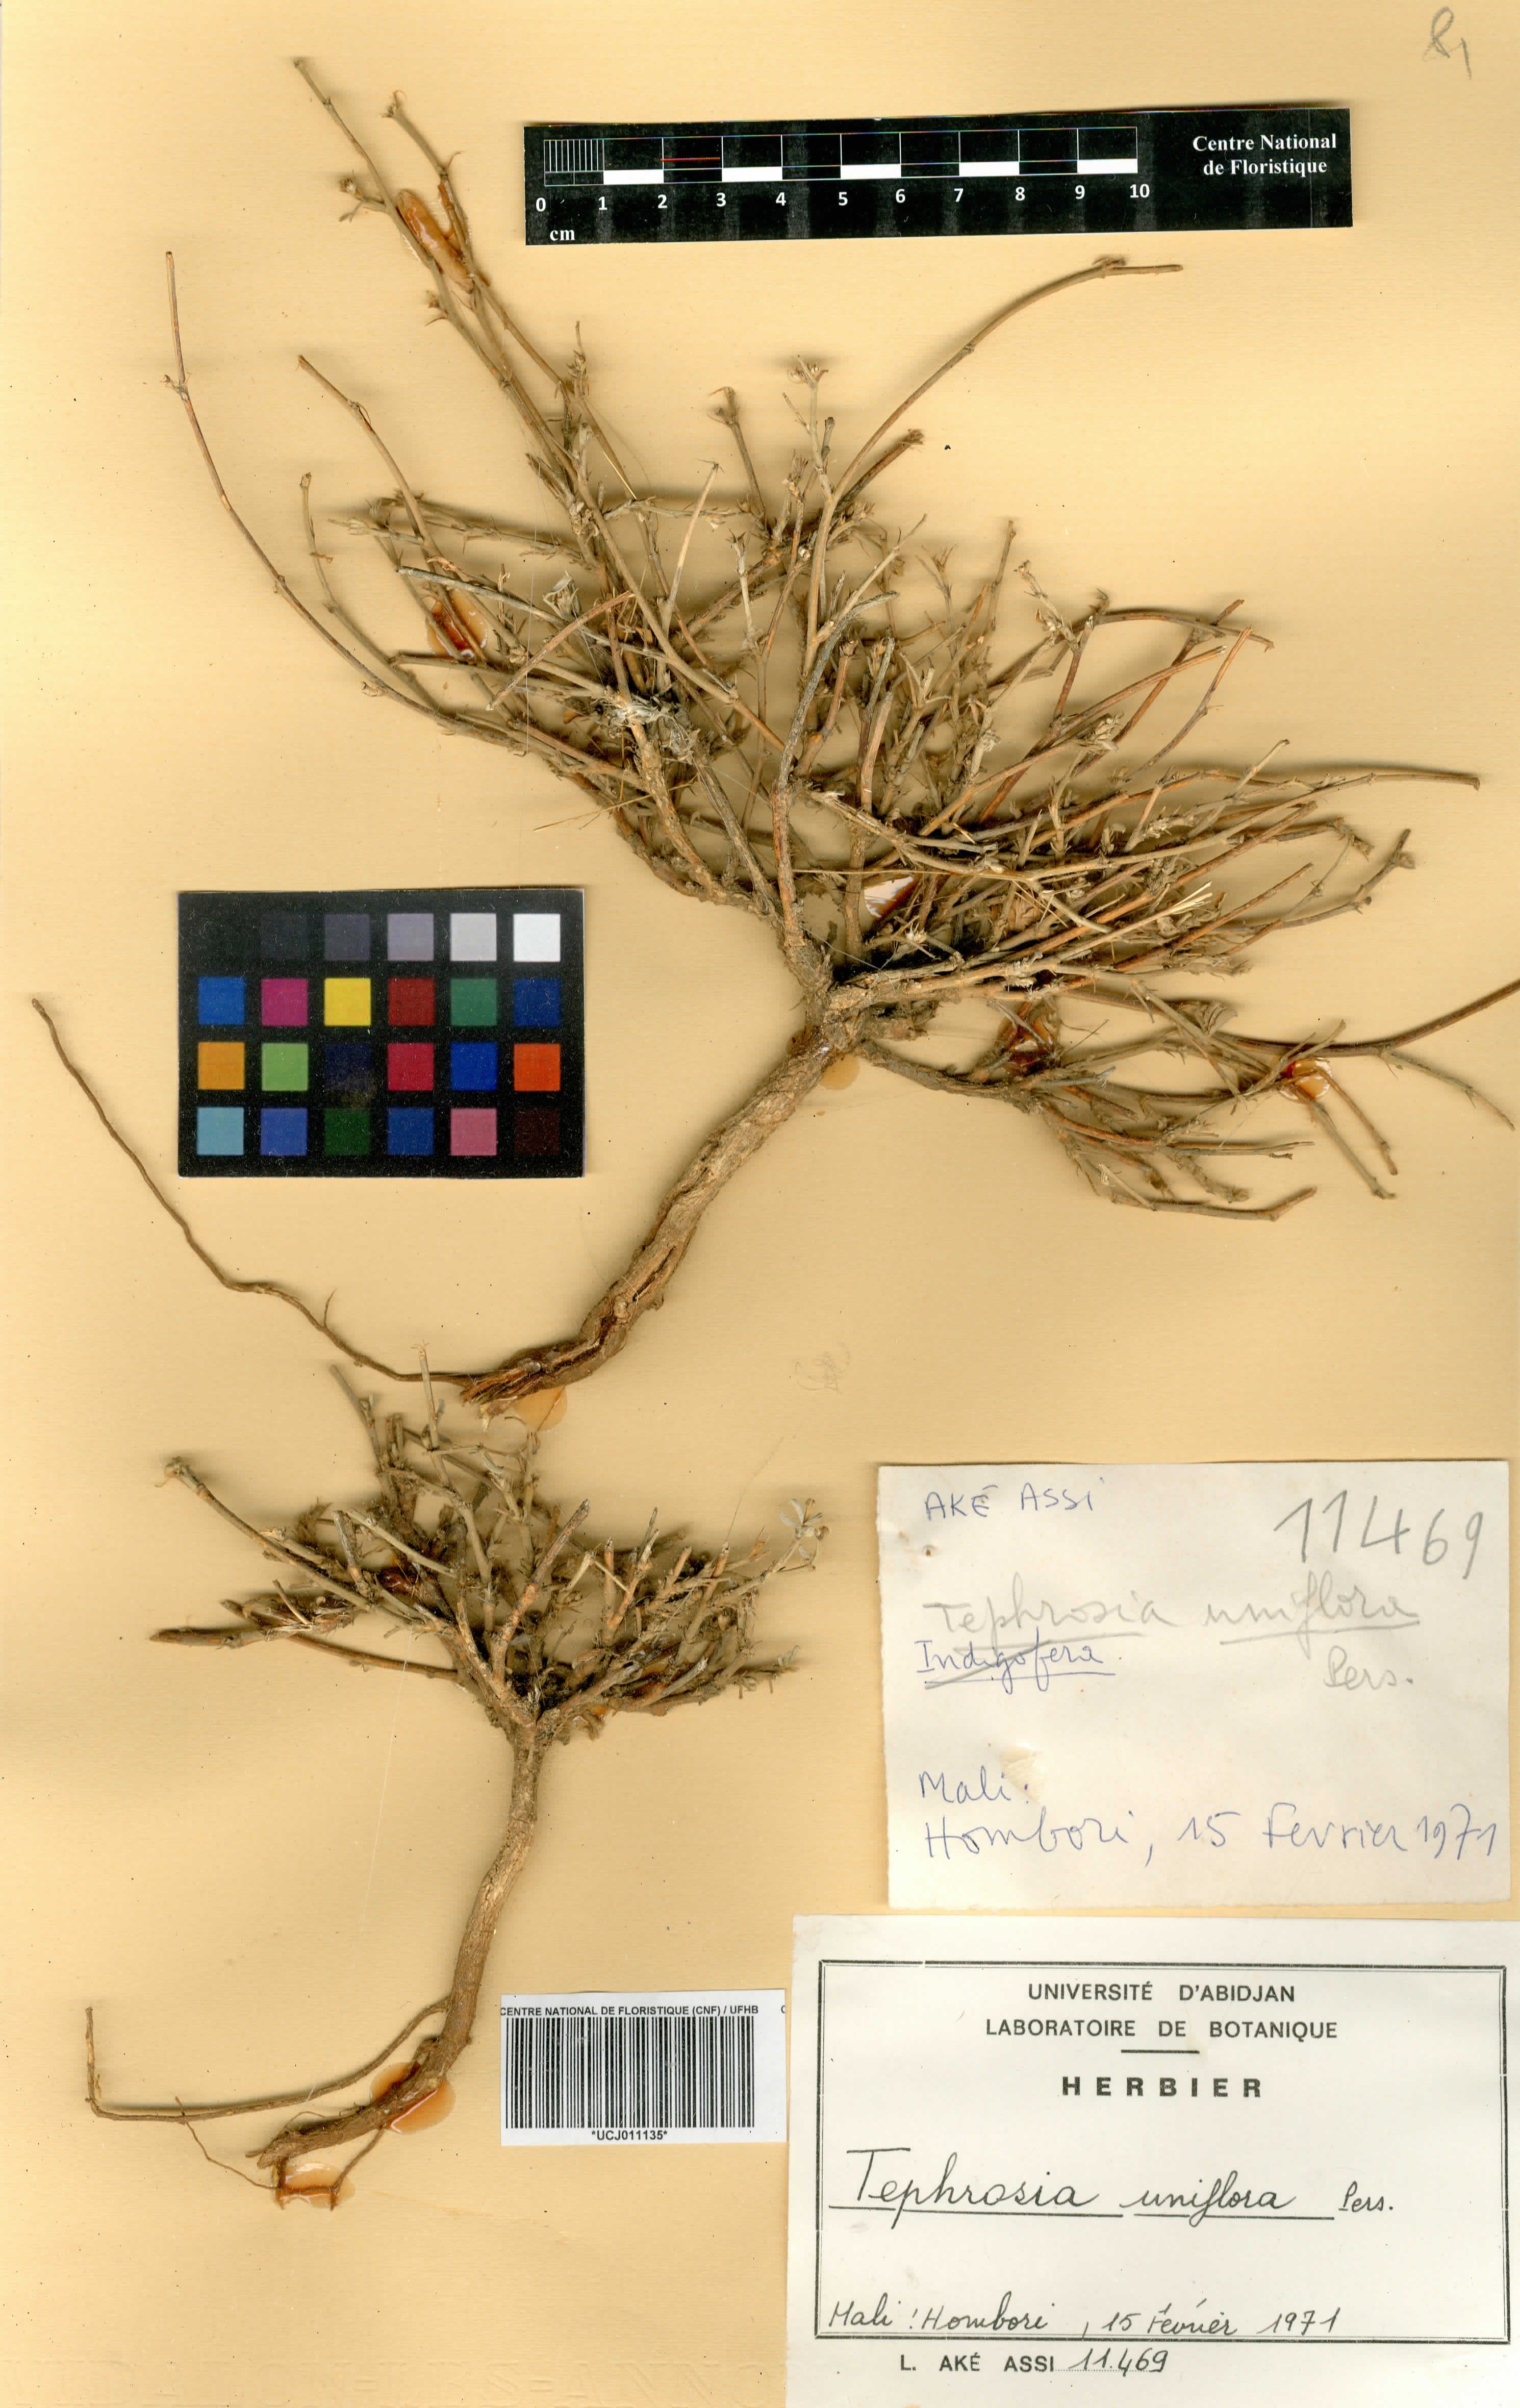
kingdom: Plantae
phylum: Tracheophyta
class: Magnoliopsida
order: Fabales
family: Fabaceae
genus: Tephrosia
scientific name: Tephrosia uniflora
